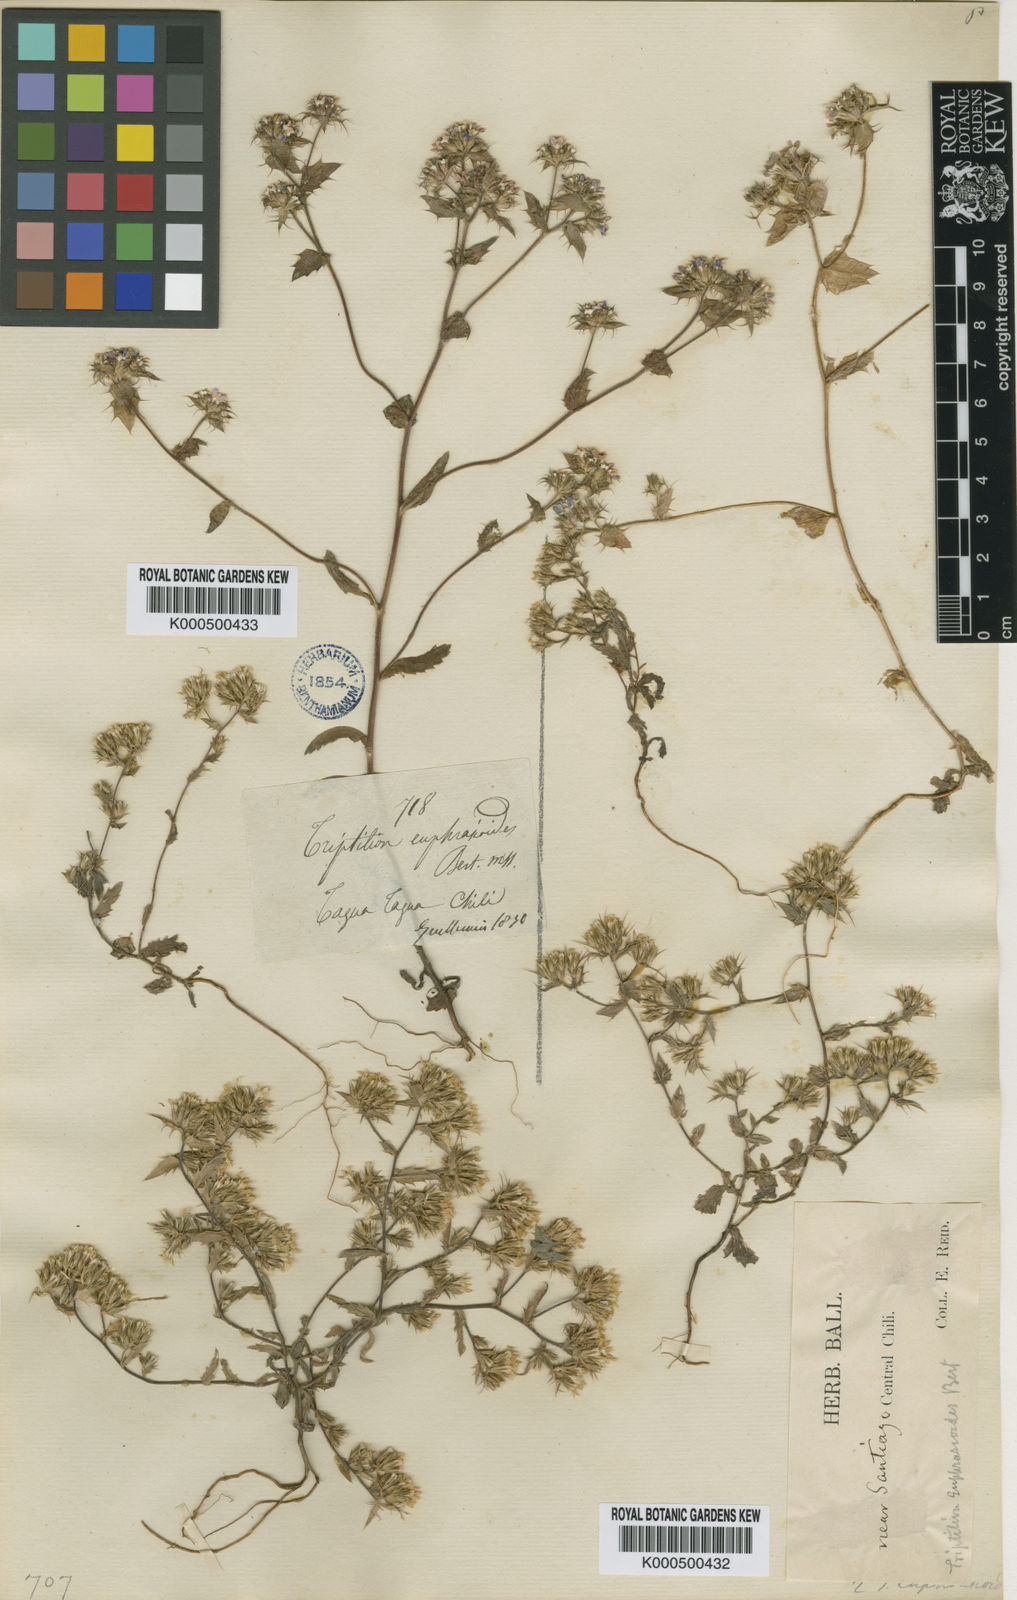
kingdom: Plantae
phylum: Tracheophyta
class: Magnoliopsida
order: Asterales
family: Asteraceae
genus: Triptilion
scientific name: Triptilion achilleae
